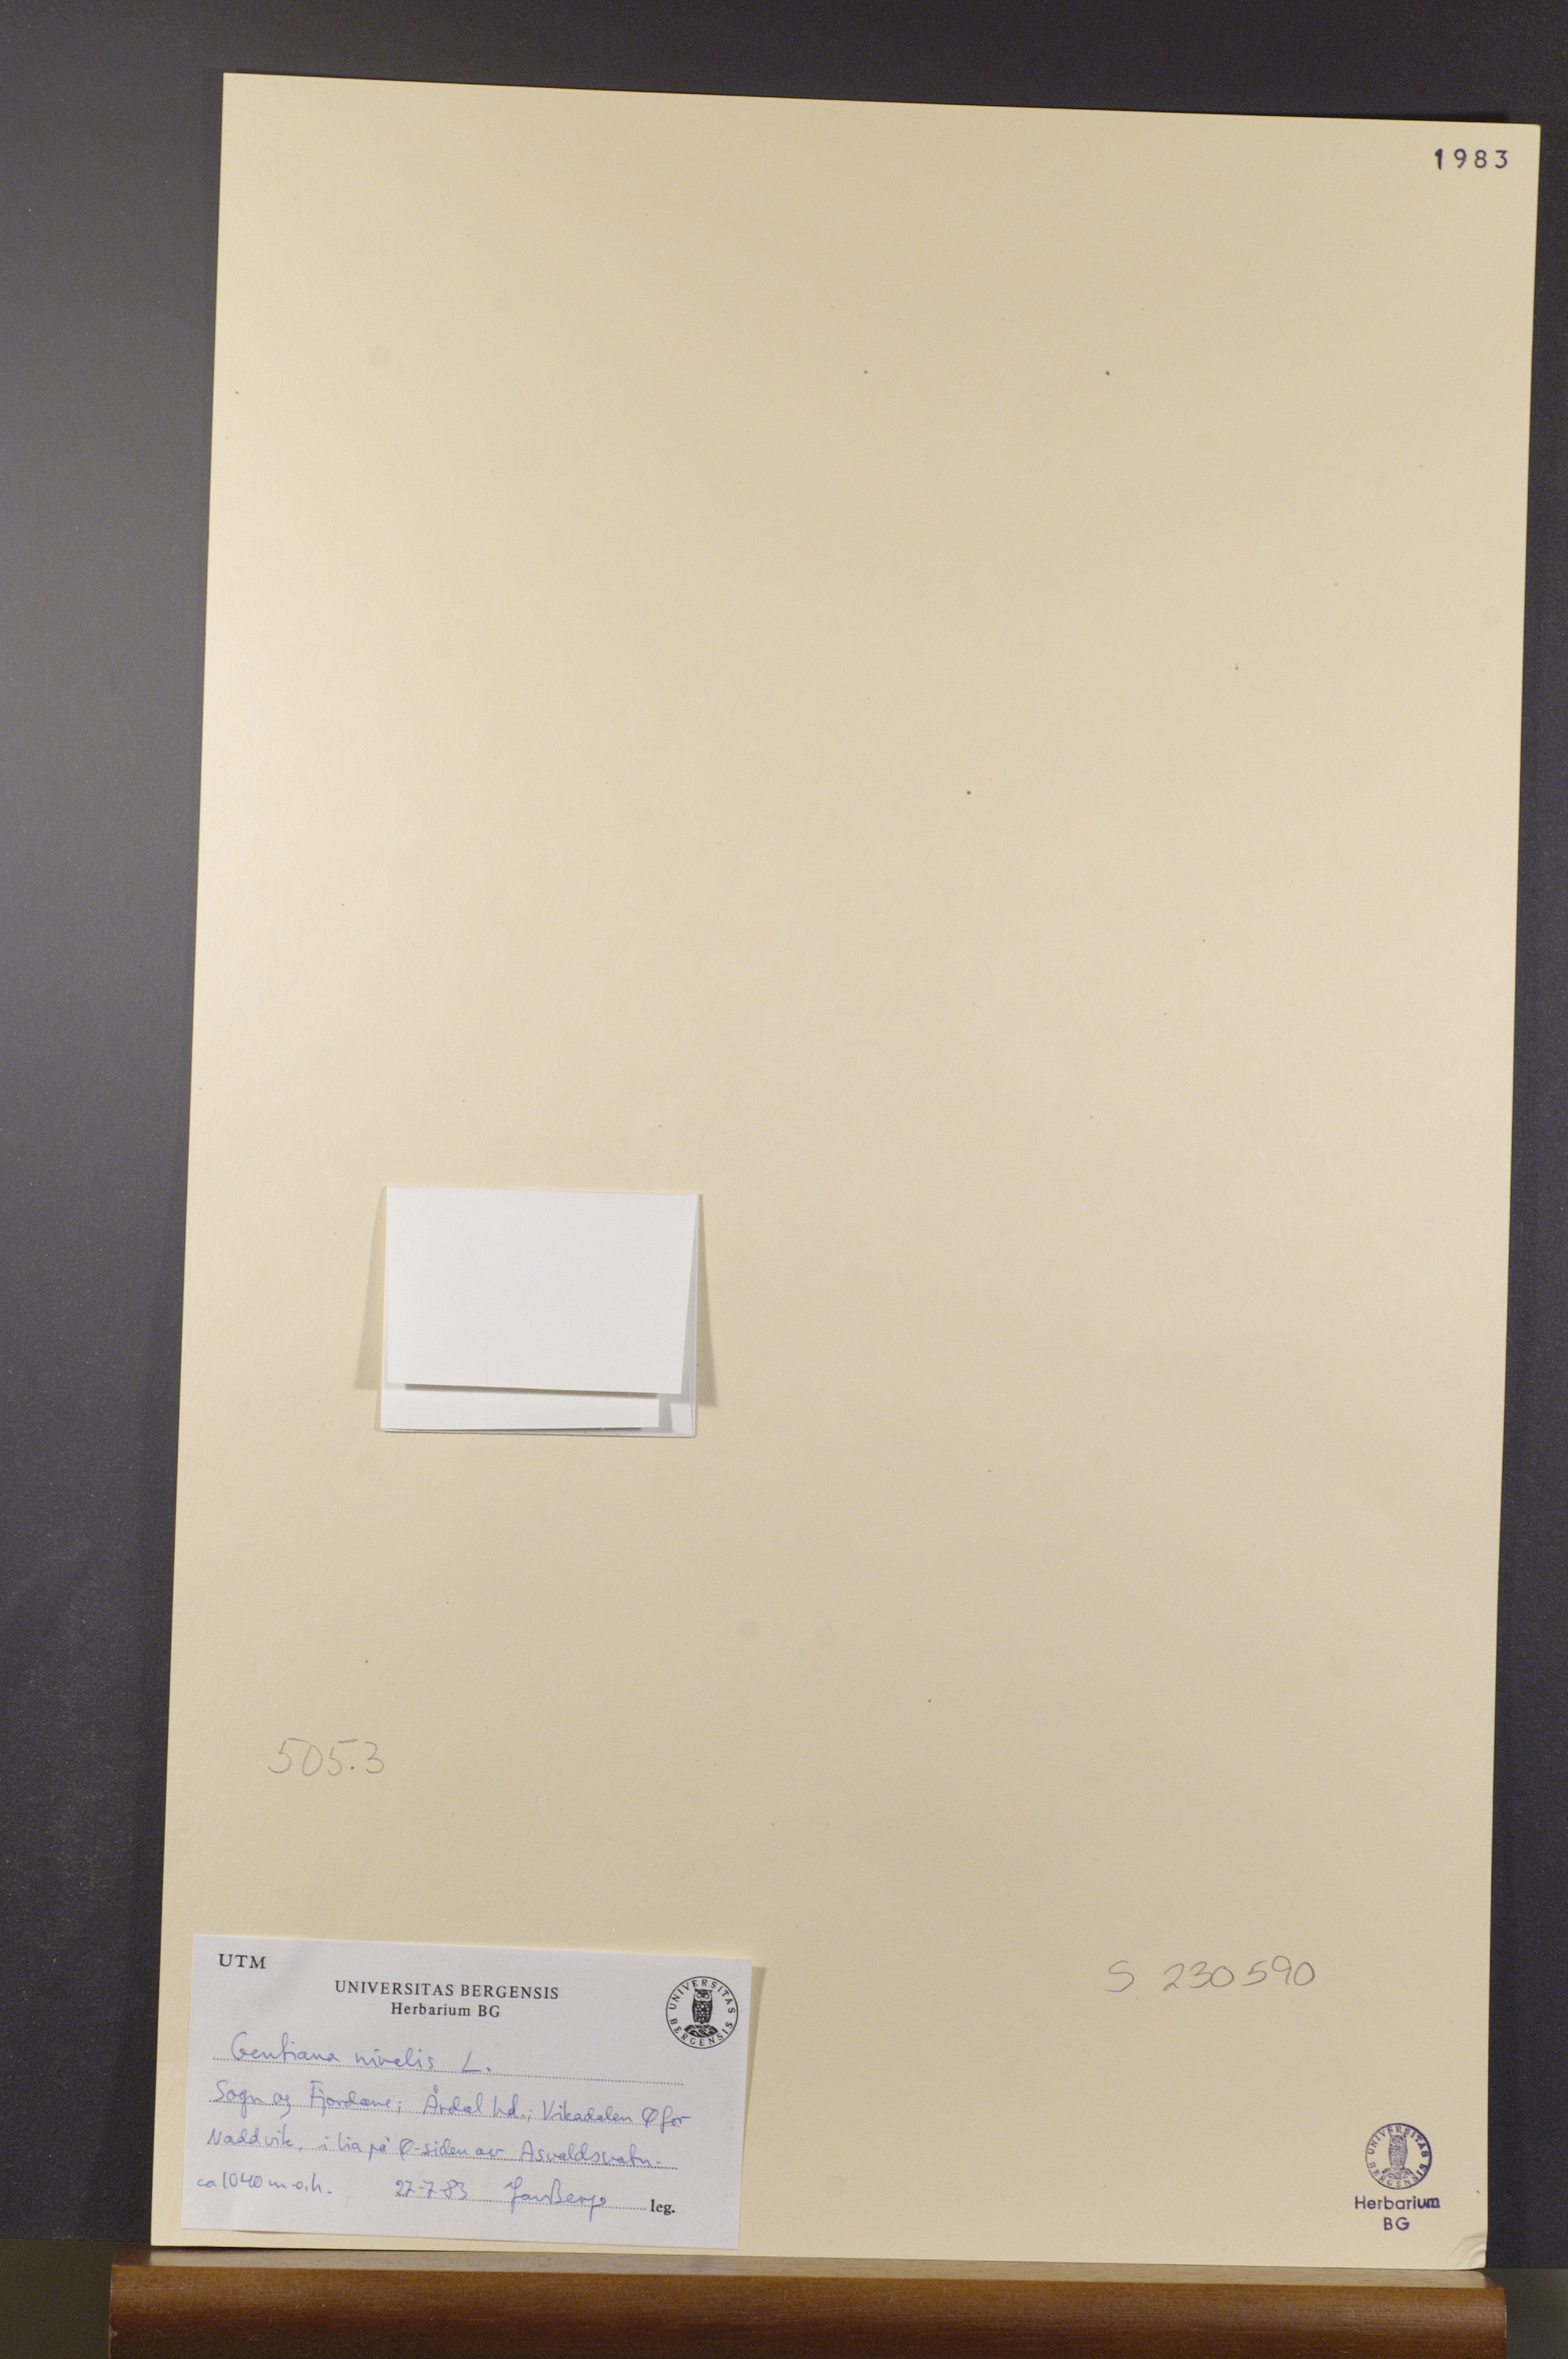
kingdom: Plantae
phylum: Tracheophyta
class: Magnoliopsida
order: Gentianales
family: Gentianaceae
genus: Gentiana
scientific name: Gentiana nivalis
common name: Alpine gentian
